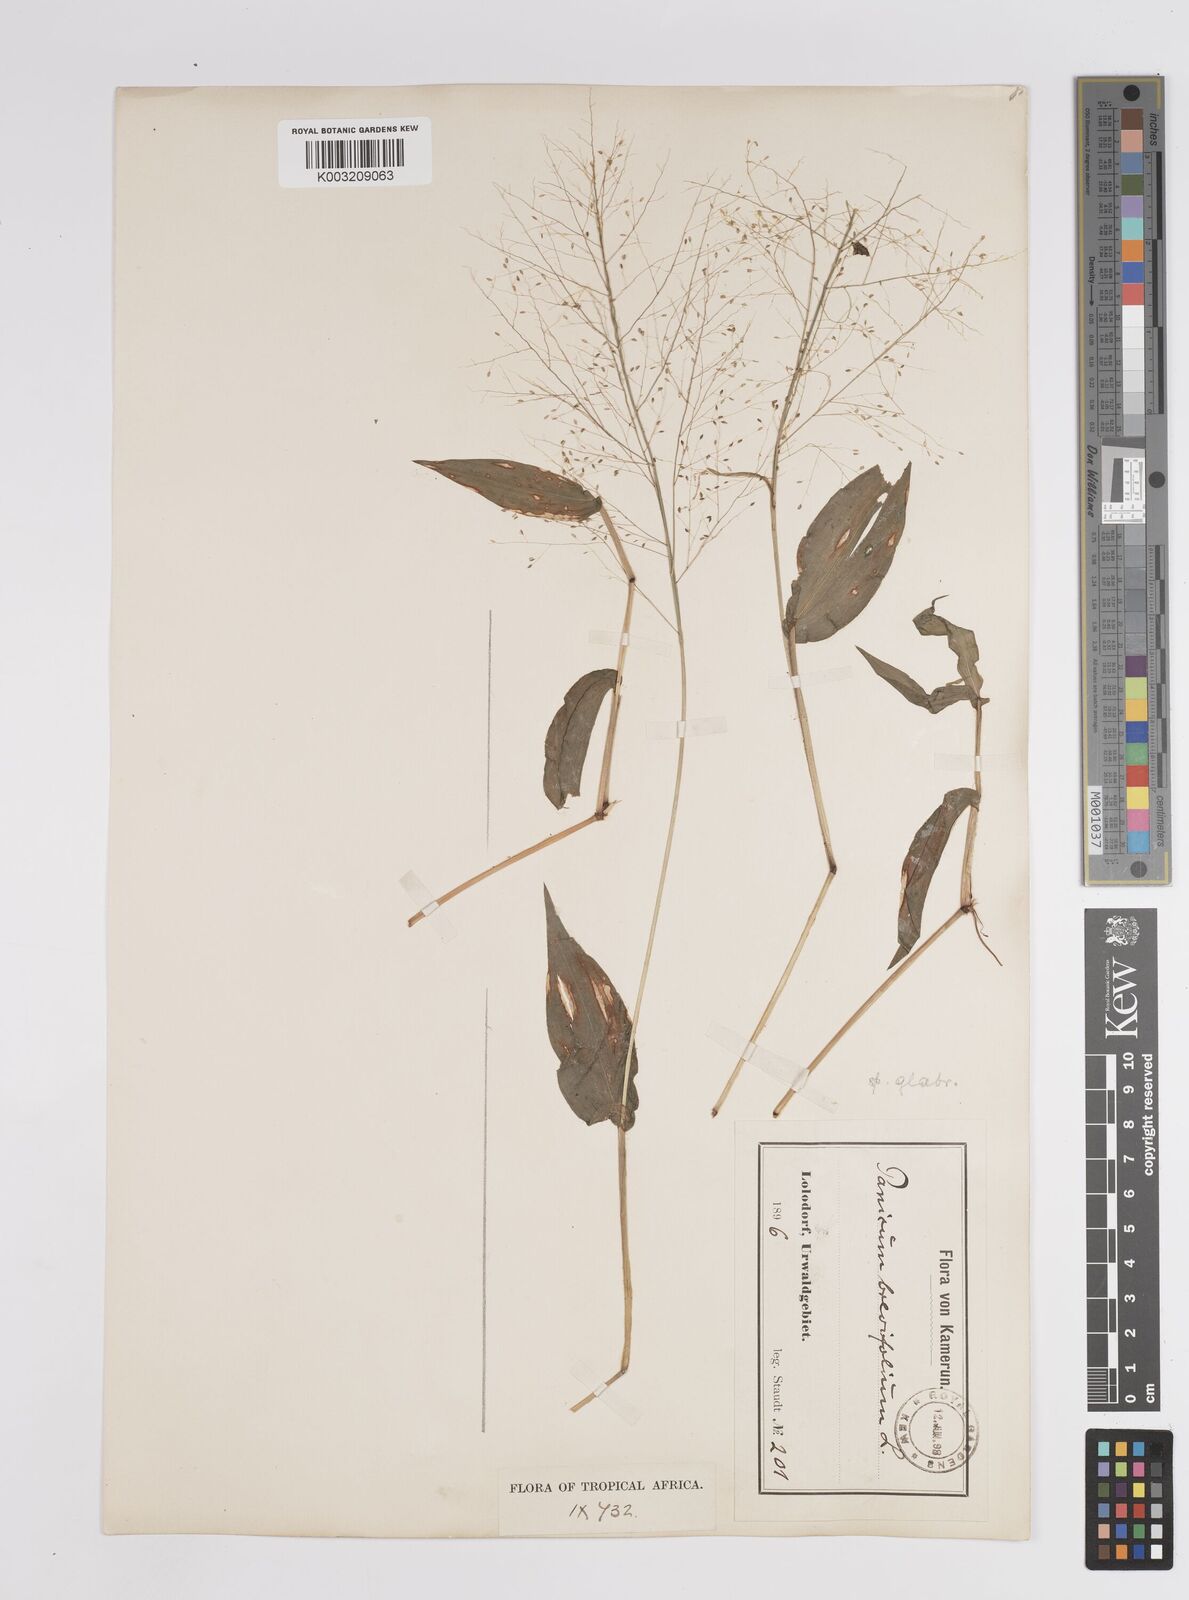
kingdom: Plantae
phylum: Tracheophyta
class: Liliopsida
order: Poales
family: Poaceae
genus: Panicum
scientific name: Panicum brevifolium
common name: Shortleaf panic grass
